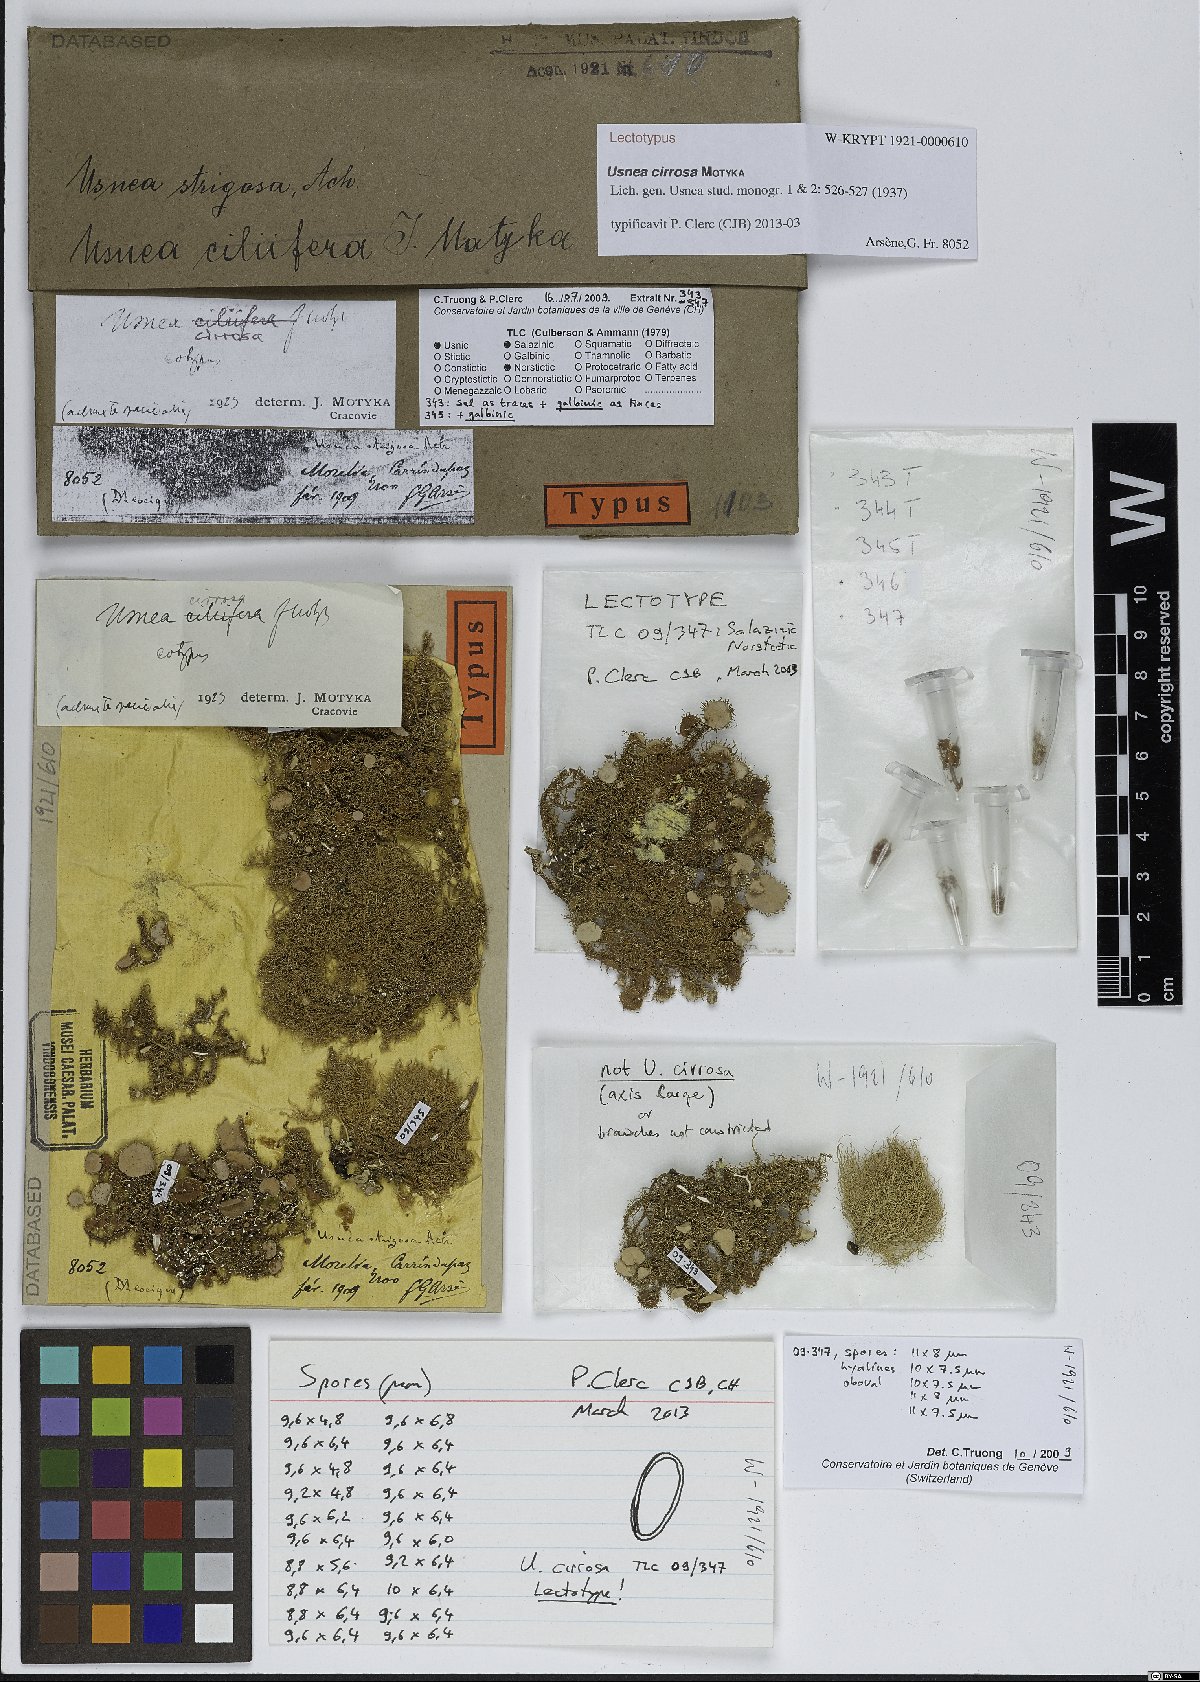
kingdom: Fungi
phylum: Ascomycota
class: Lecanoromycetes
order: Lecanorales
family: Parmeliaceae
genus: Usnea
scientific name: Usnea cirrosa
